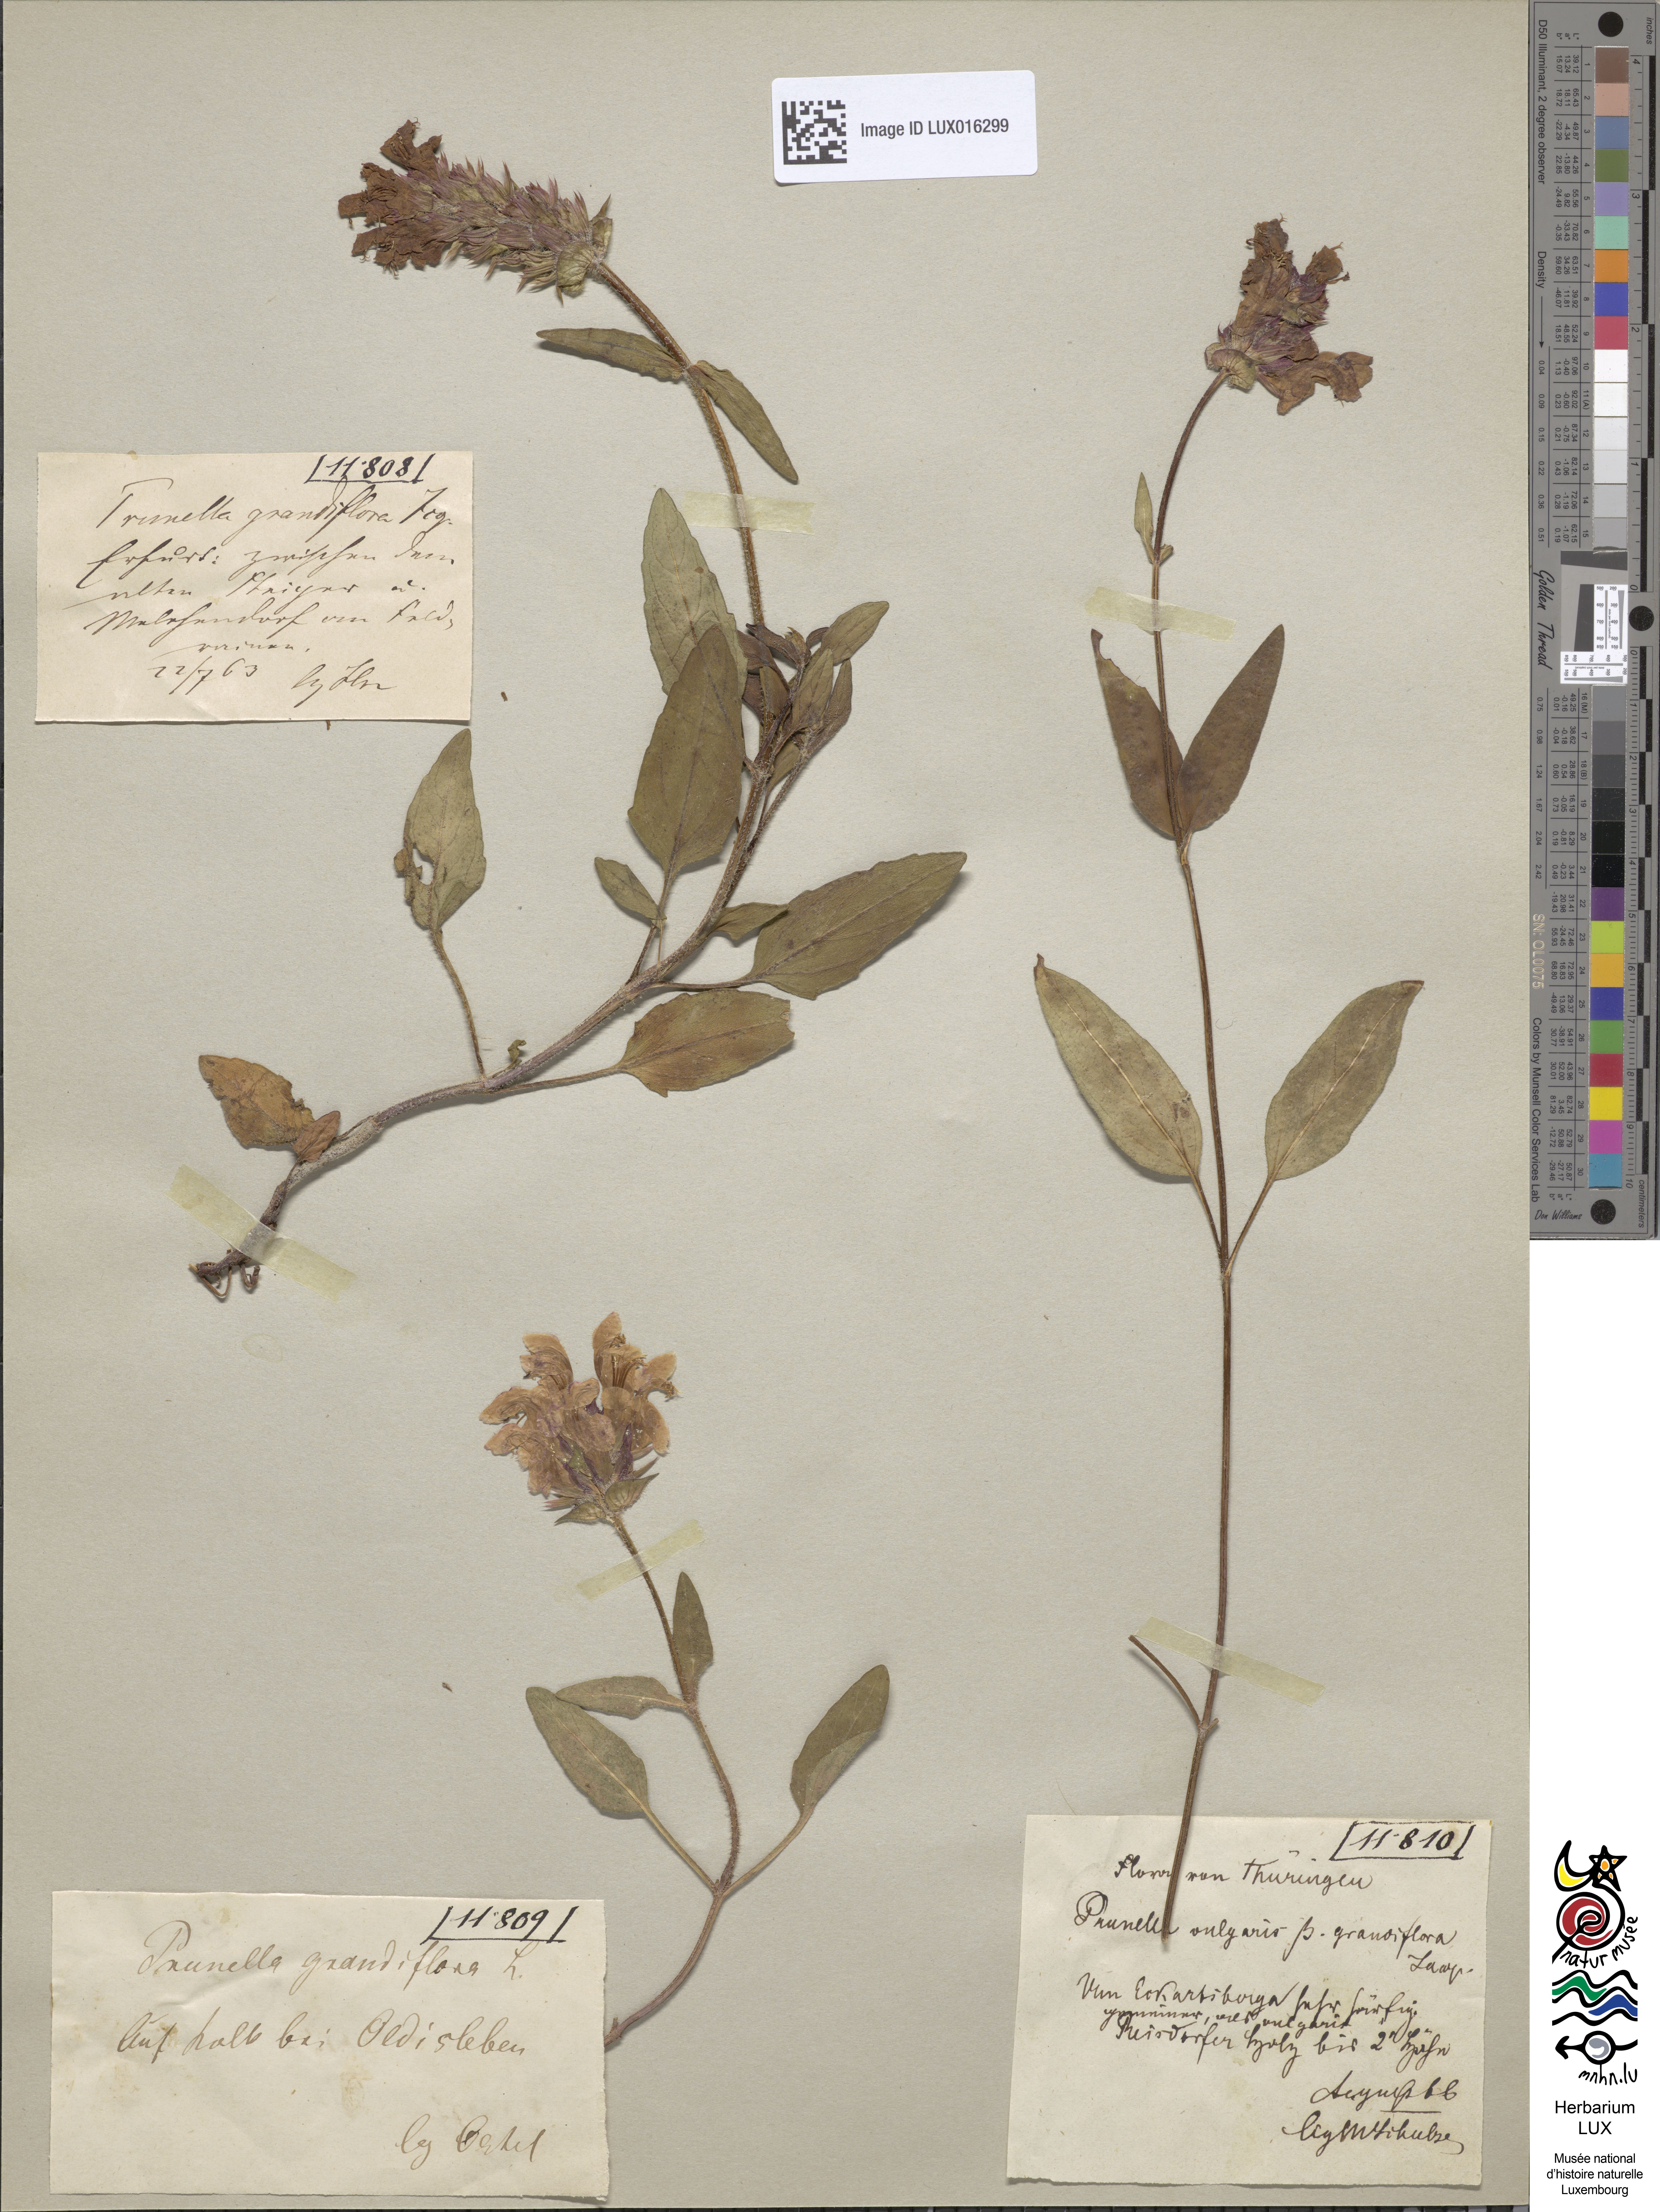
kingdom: Plantae
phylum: Tracheophyta
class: Magnoliopsida
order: Lamiales
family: Lamiaceae
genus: Prunella
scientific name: Prunella grandiflora
